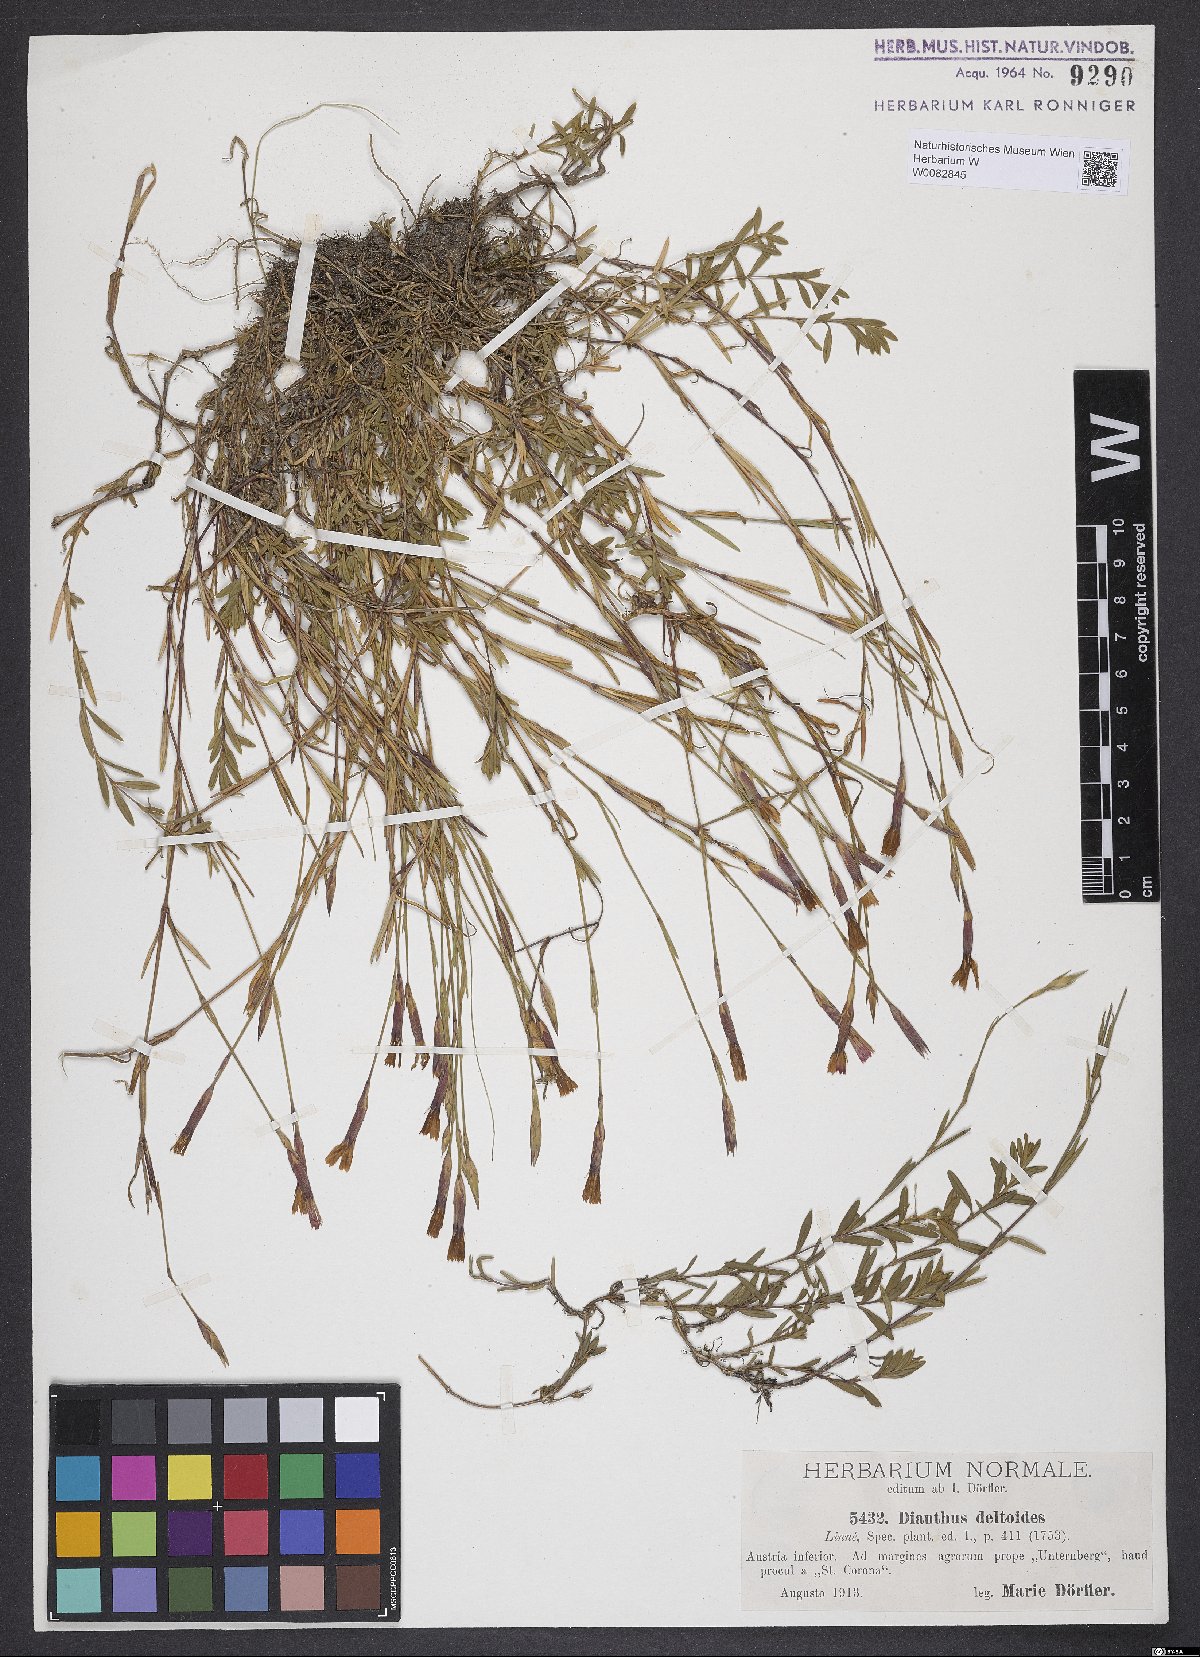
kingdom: Plantae
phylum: Tracheophyta
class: Magnoliopsida
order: Caryophyllales
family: Caryophyllaceae
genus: Dianthus
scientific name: Dianthus deltoides
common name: Maiden pink
